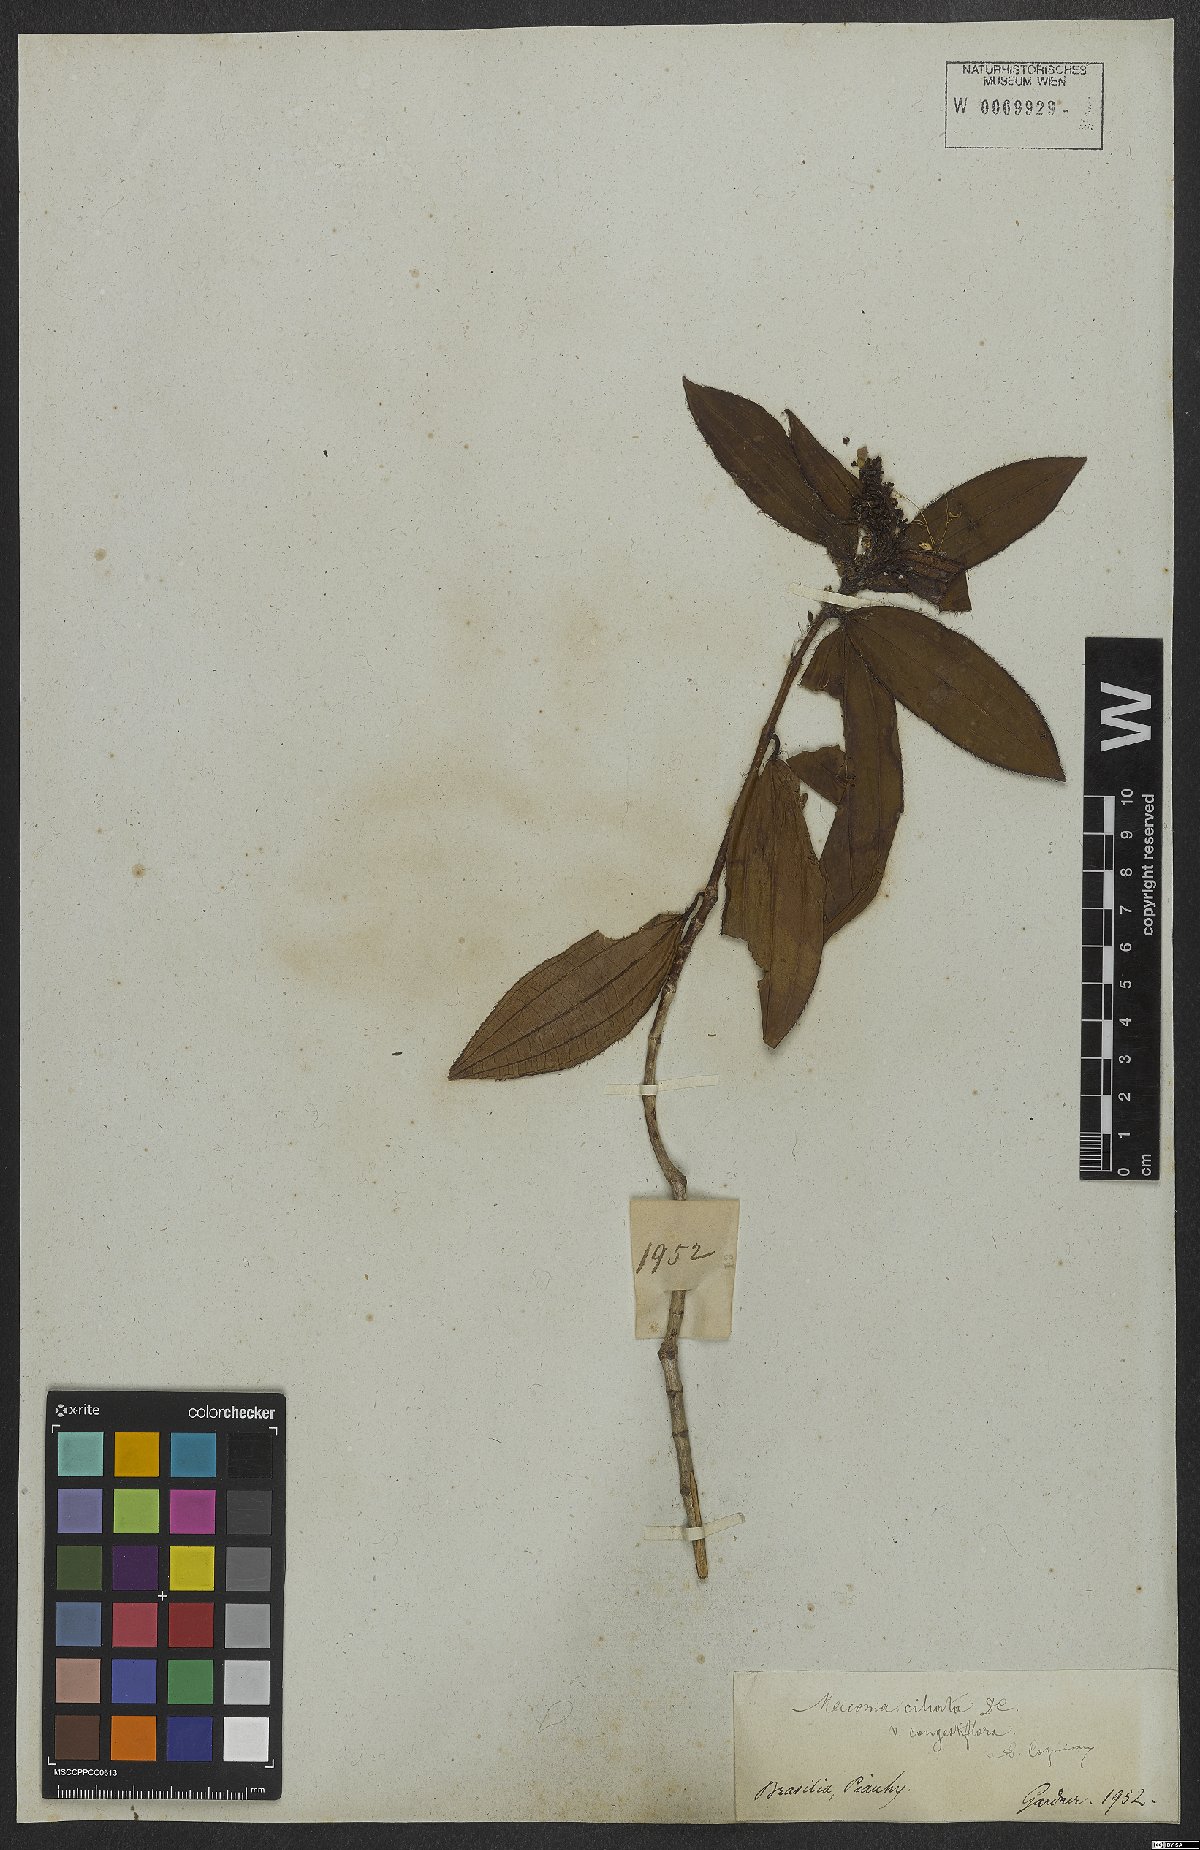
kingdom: Plantae
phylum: Tracheophyta
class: Magnoliopsida
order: Myrtales
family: Melastomataceae
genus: Miconia
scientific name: Miconia ciliata
